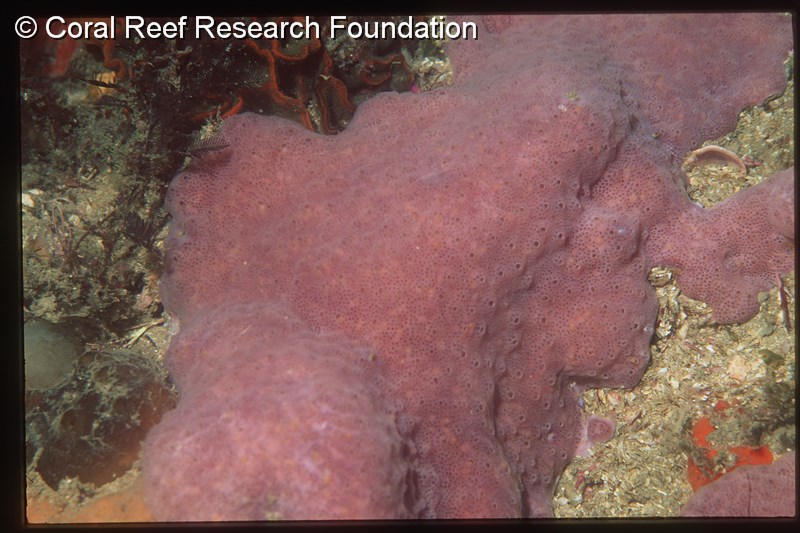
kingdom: Animalia
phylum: Chordata
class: Ascidiacea
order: Aplousobranchia
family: Polyclinidae
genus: Aplidium
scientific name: Aplidium
